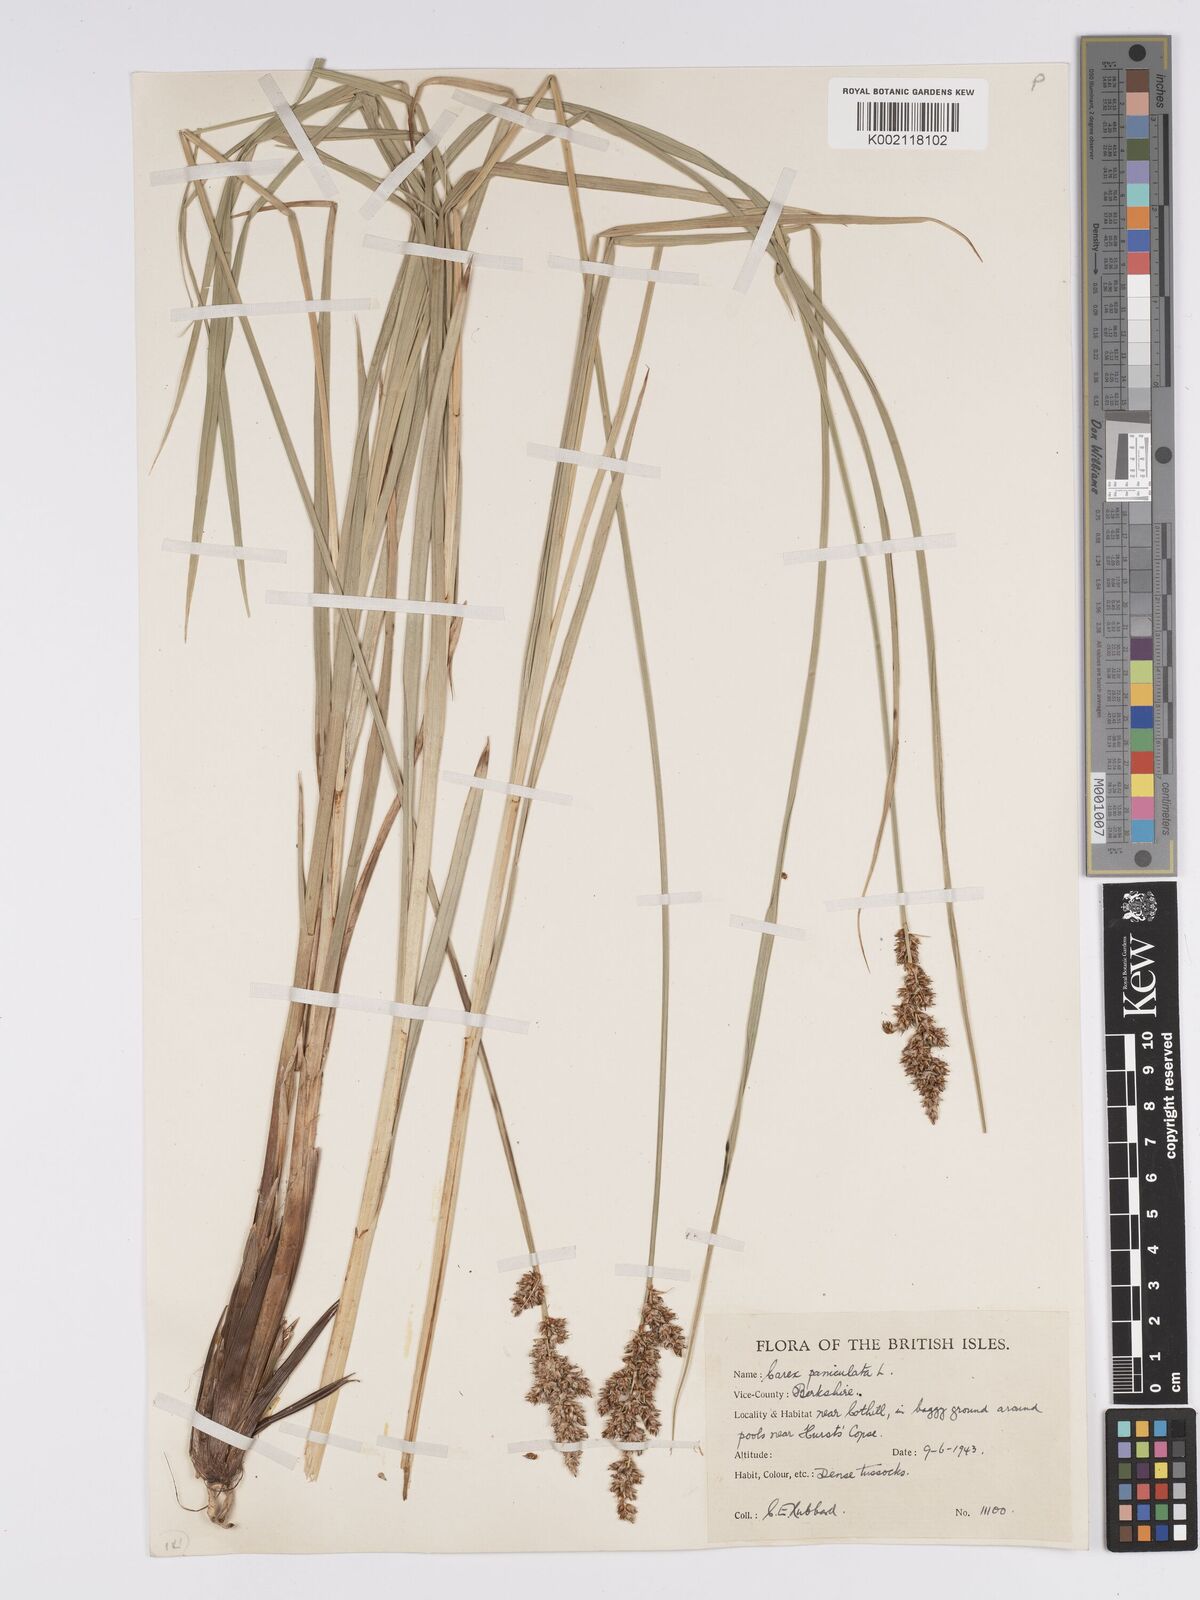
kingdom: Plantae
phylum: Tracheophyta
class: Liliopsida
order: Poales
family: Cyperaceae
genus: Carex
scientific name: Carex paniculata
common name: Greater tussock-sedge
